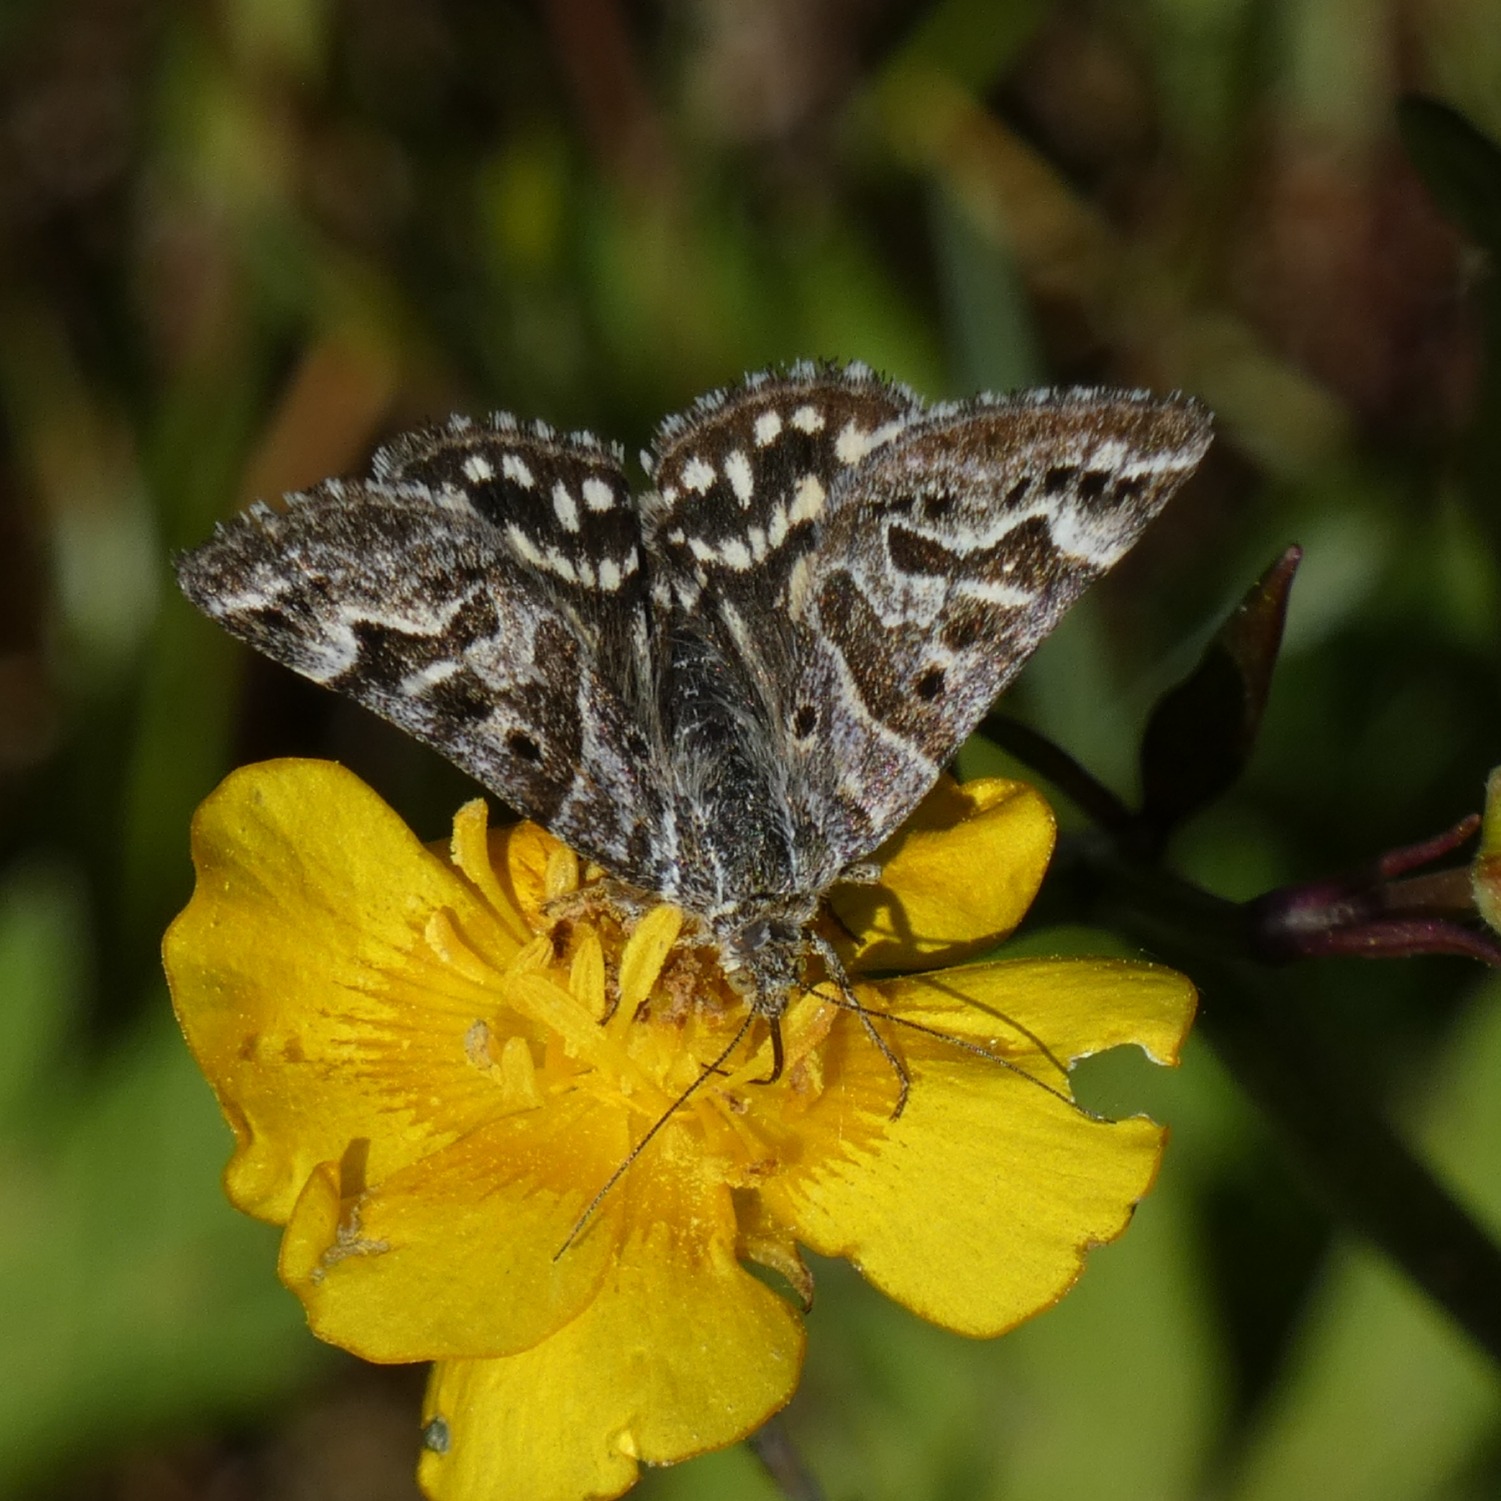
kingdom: Animalia
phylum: Arthropoda
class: Insecta
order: Lepidoptera
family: Erebidae
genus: Callistege
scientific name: Callistege mi
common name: Marmoreret kløverugle
